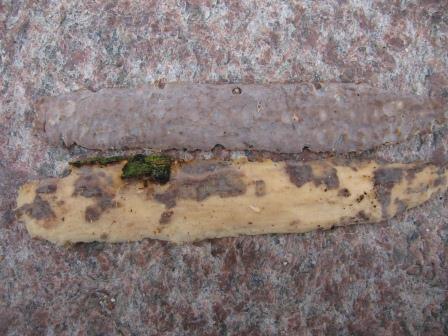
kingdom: Fungi
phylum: Basidiomycota
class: Agaricomycetes
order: Corticiales
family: Vuilleminiaceae
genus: Vuilleminia
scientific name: Vuilleminia comedens
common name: almindelig barksprænger
